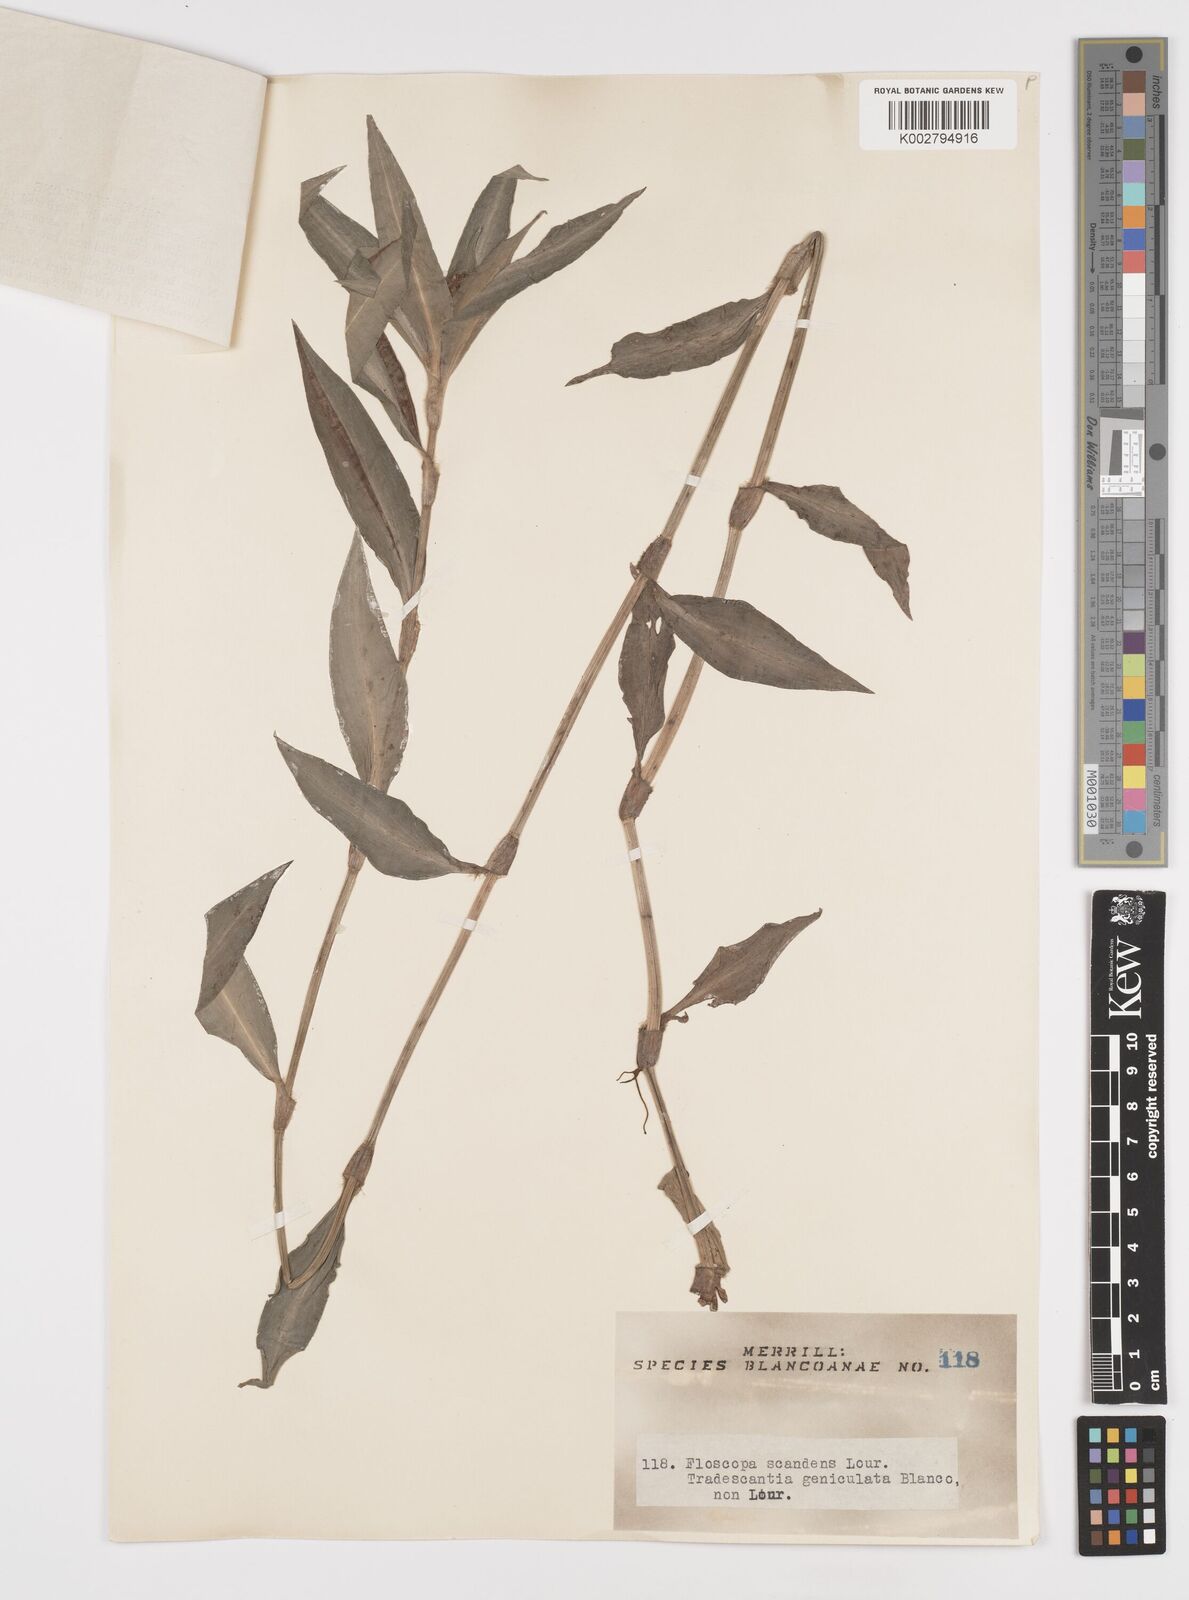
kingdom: Plantae
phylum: Tracheophyta
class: Liliopsida
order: Commelinales
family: Commelinaceae
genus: Floscopa
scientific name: Floscopa scandens
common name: Climbing flower cup
